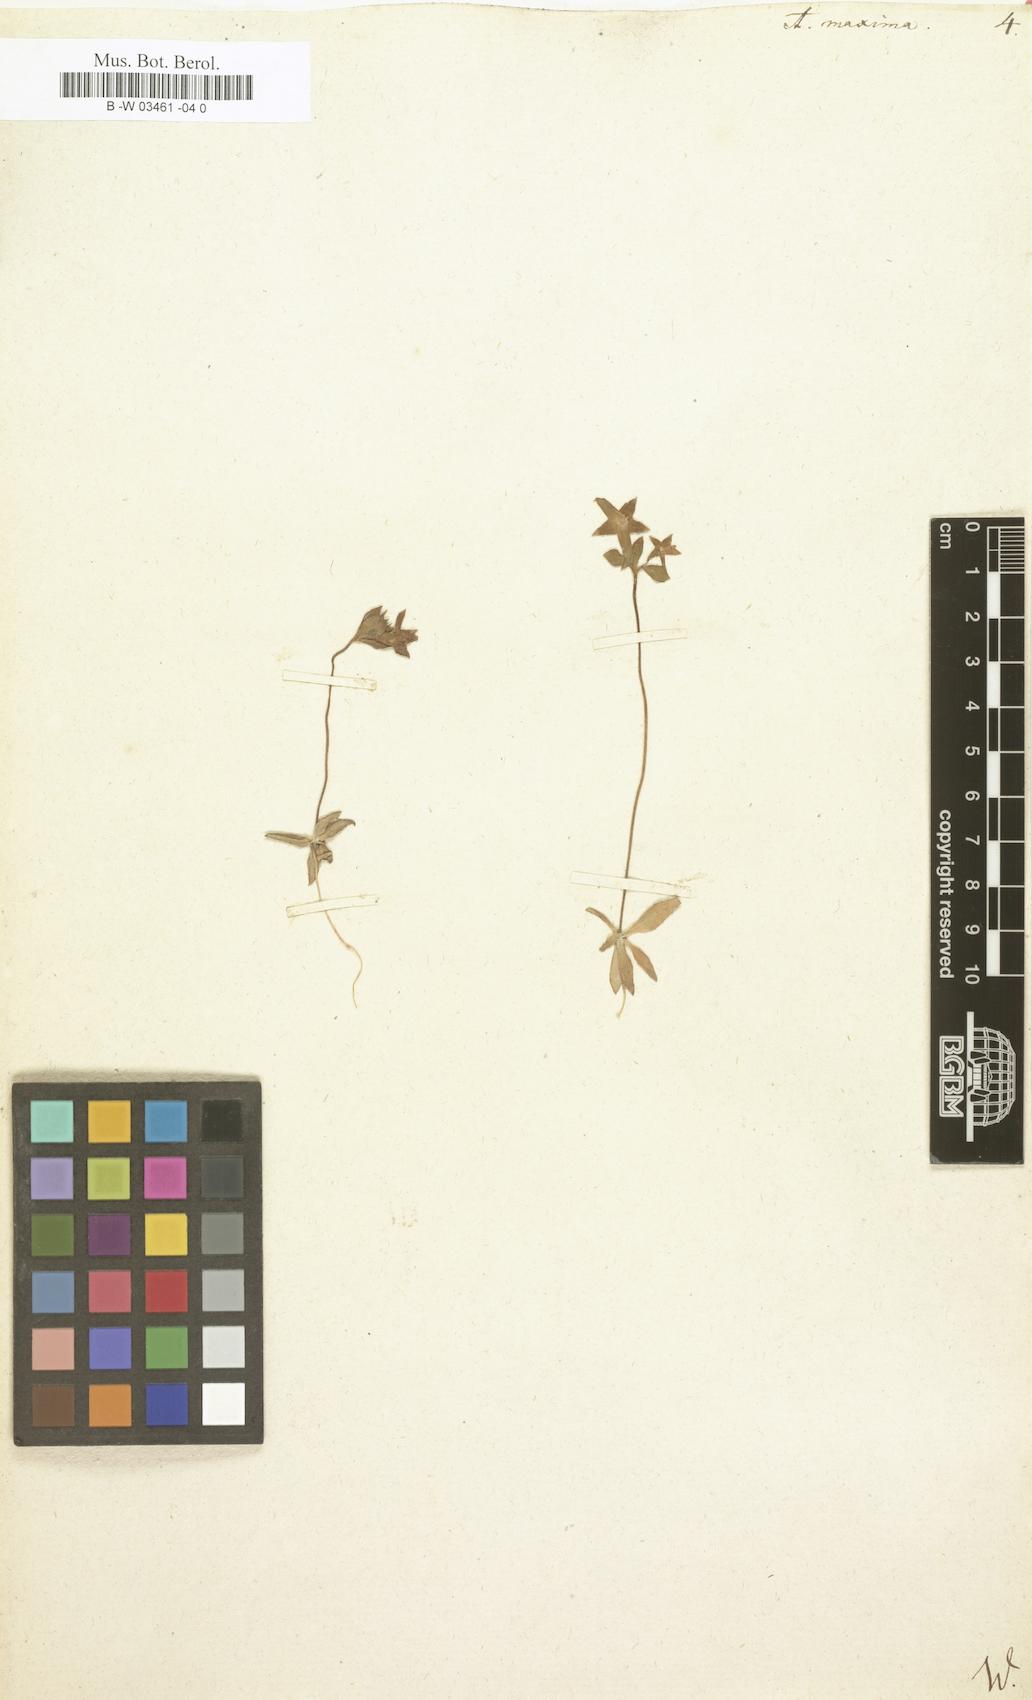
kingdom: Plantae
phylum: Tracheophyta
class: Magnoliopsida
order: Ericales
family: Primulaceae
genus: Androsace
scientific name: Androsace maxima
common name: Annual androsace
